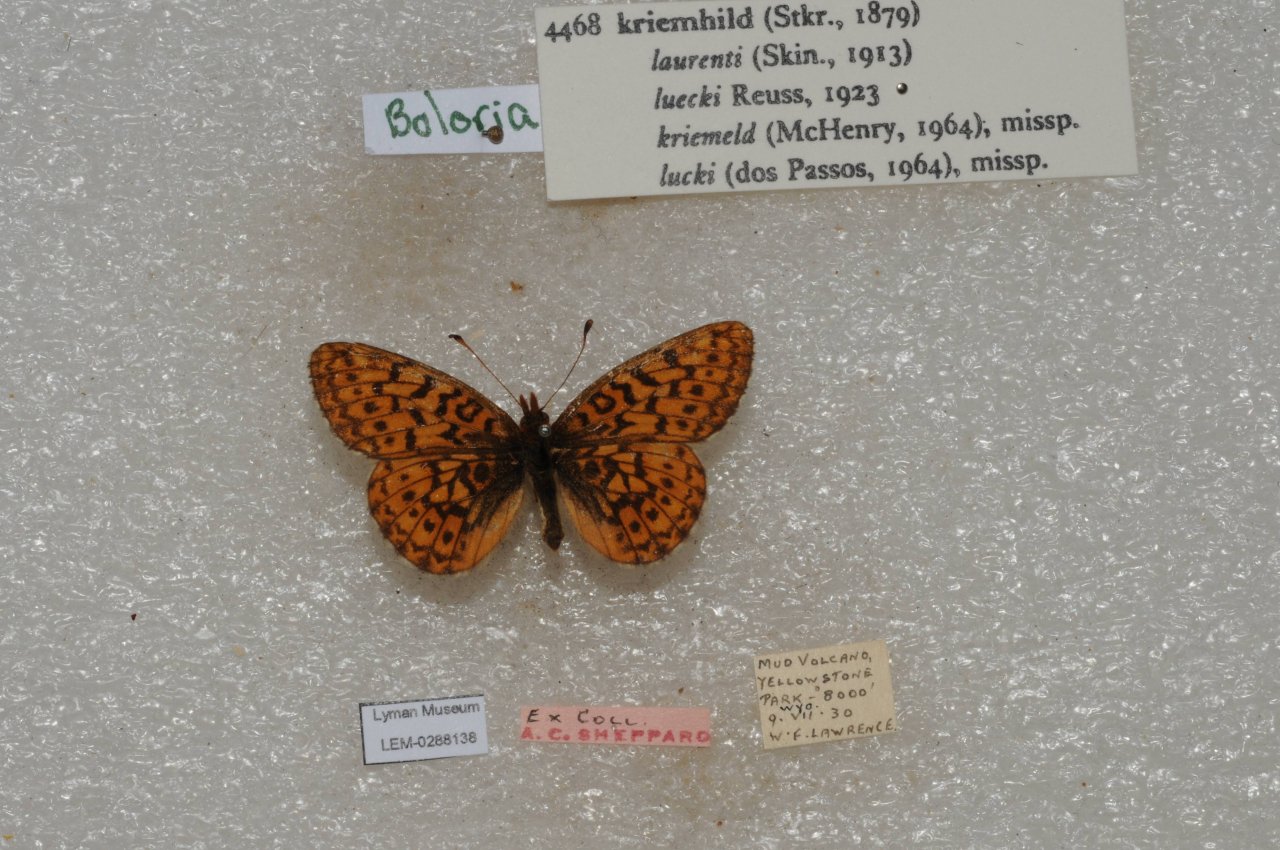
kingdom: Animalia
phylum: Arthropoda
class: Insecta
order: Lepidoptera
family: Nymphalidae
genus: Boloria
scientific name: Boloria kriemhild
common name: Relict Fritillary
